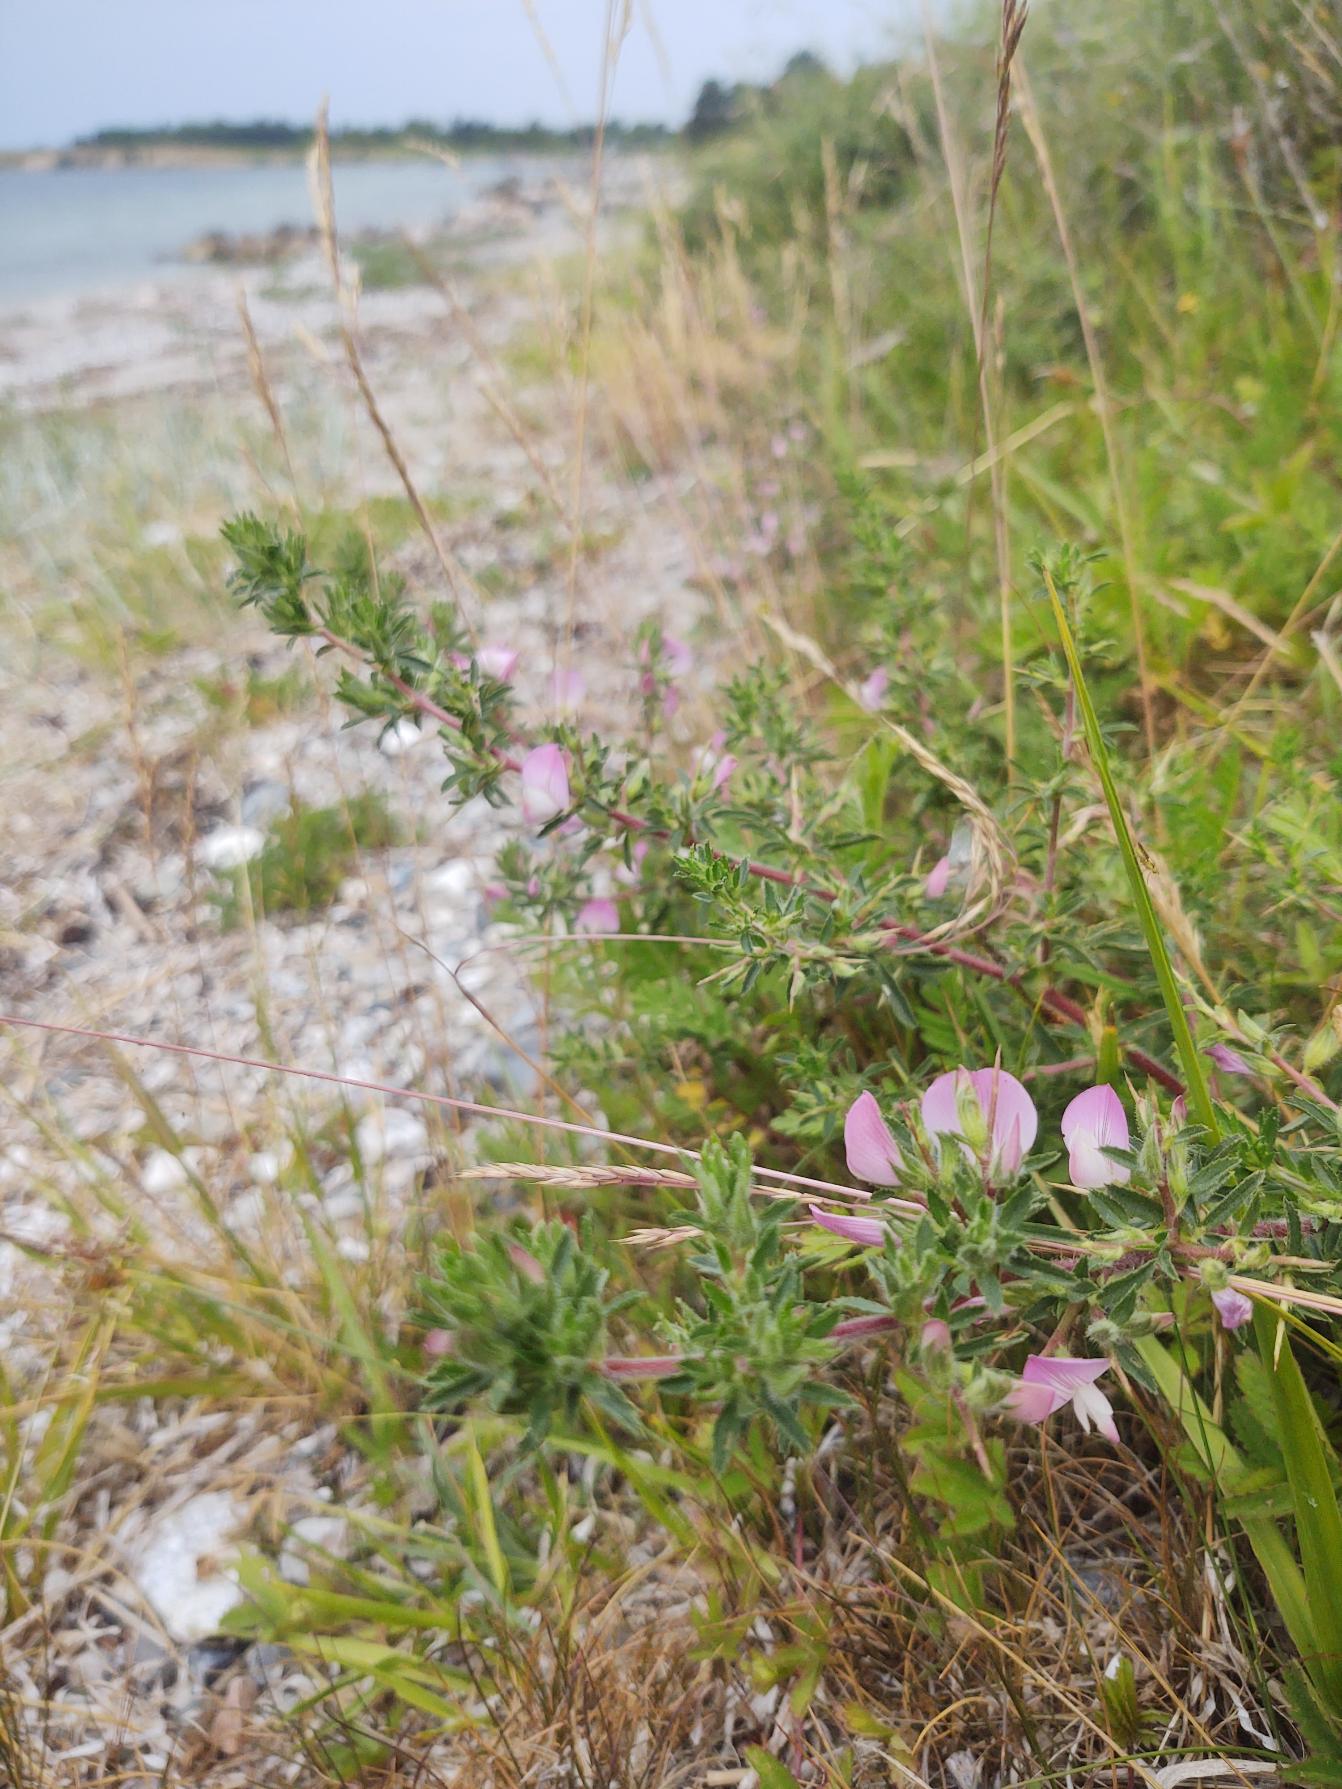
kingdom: Plantae
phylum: Tracheophyta
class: Magnoliopsida
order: Fabales
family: Fabaceae
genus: Ononis
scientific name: Ononis spinosa
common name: Strand-krageklo
